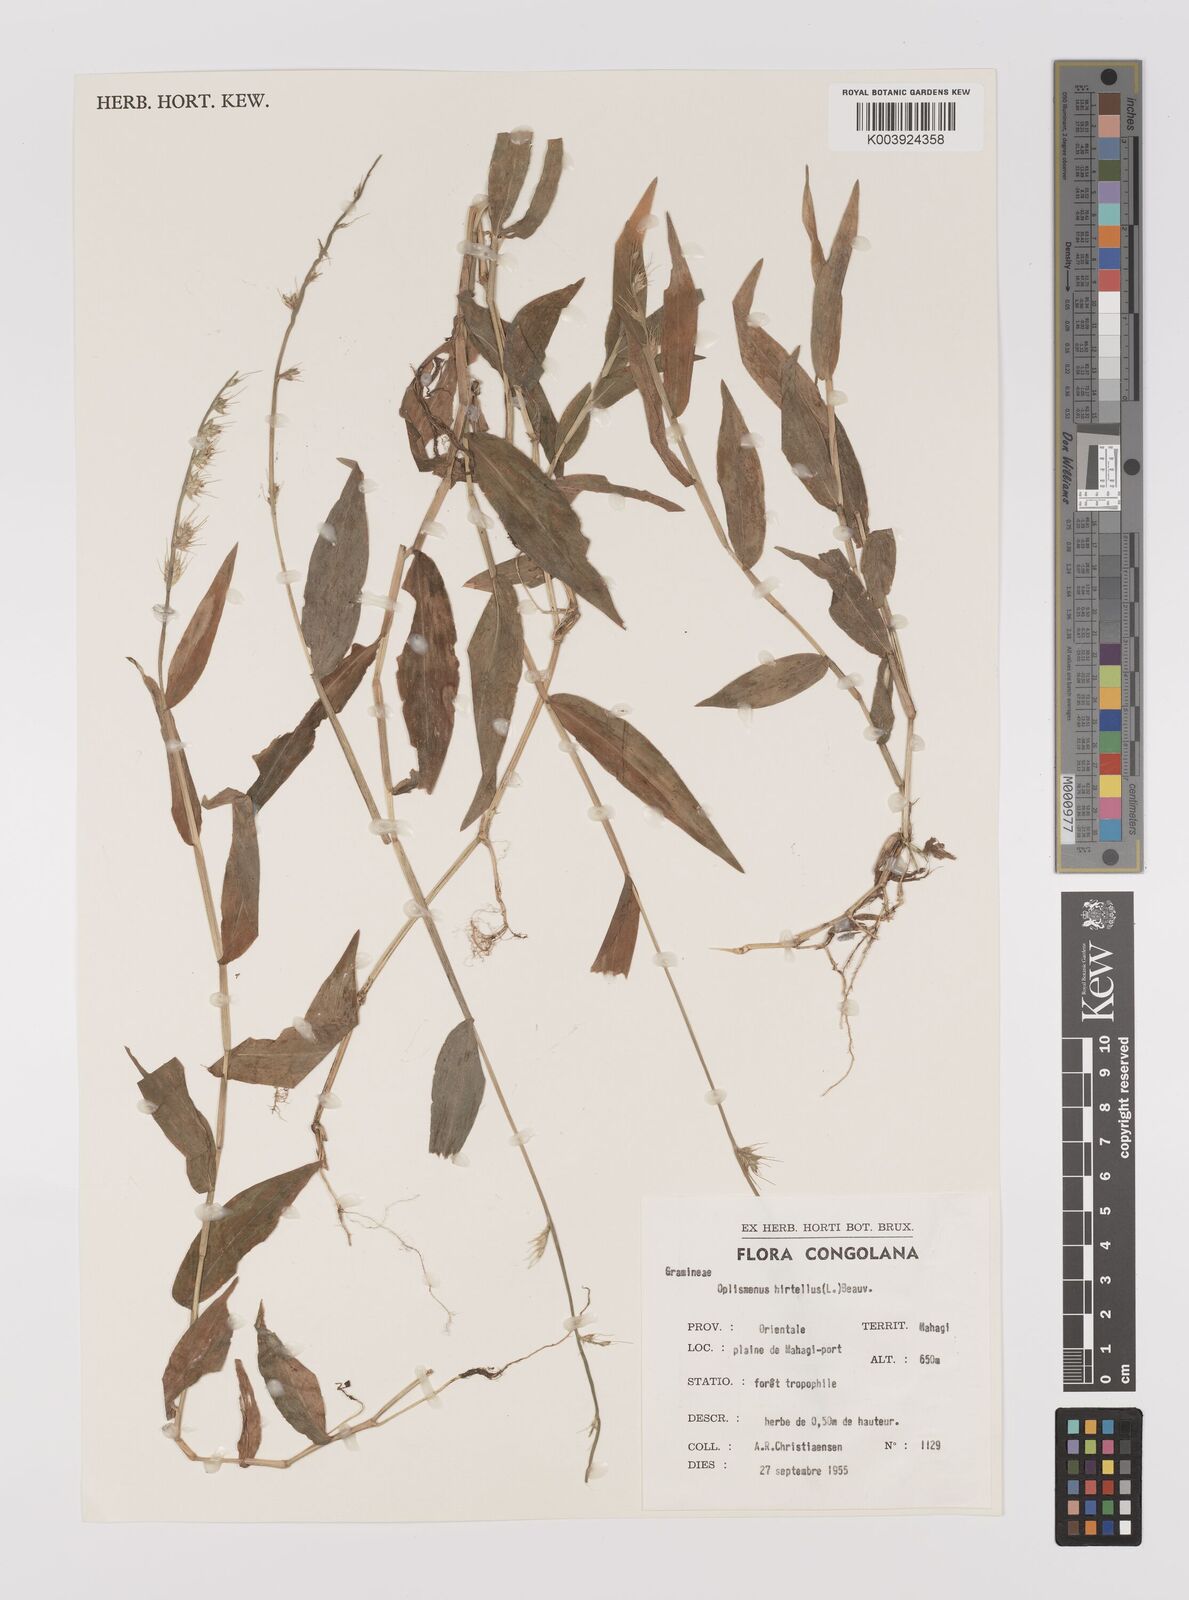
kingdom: Plantae
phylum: Tracheophyta
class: Liliopsida
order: Poales
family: Poaceae
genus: Oplismenus
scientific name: Oplismenus hirtellus
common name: Basketgrass
